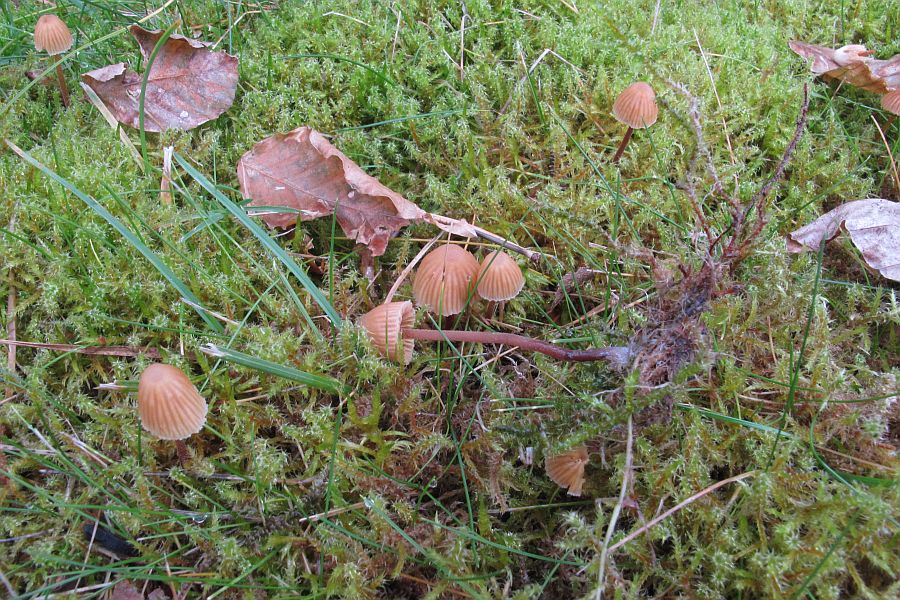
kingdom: Fungi
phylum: Basidiomycota
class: Agaricomycetes
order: Agaricales
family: Hymenogastraceae
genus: Galerina
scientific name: Galerina vittiformis
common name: Hairy leg bell
